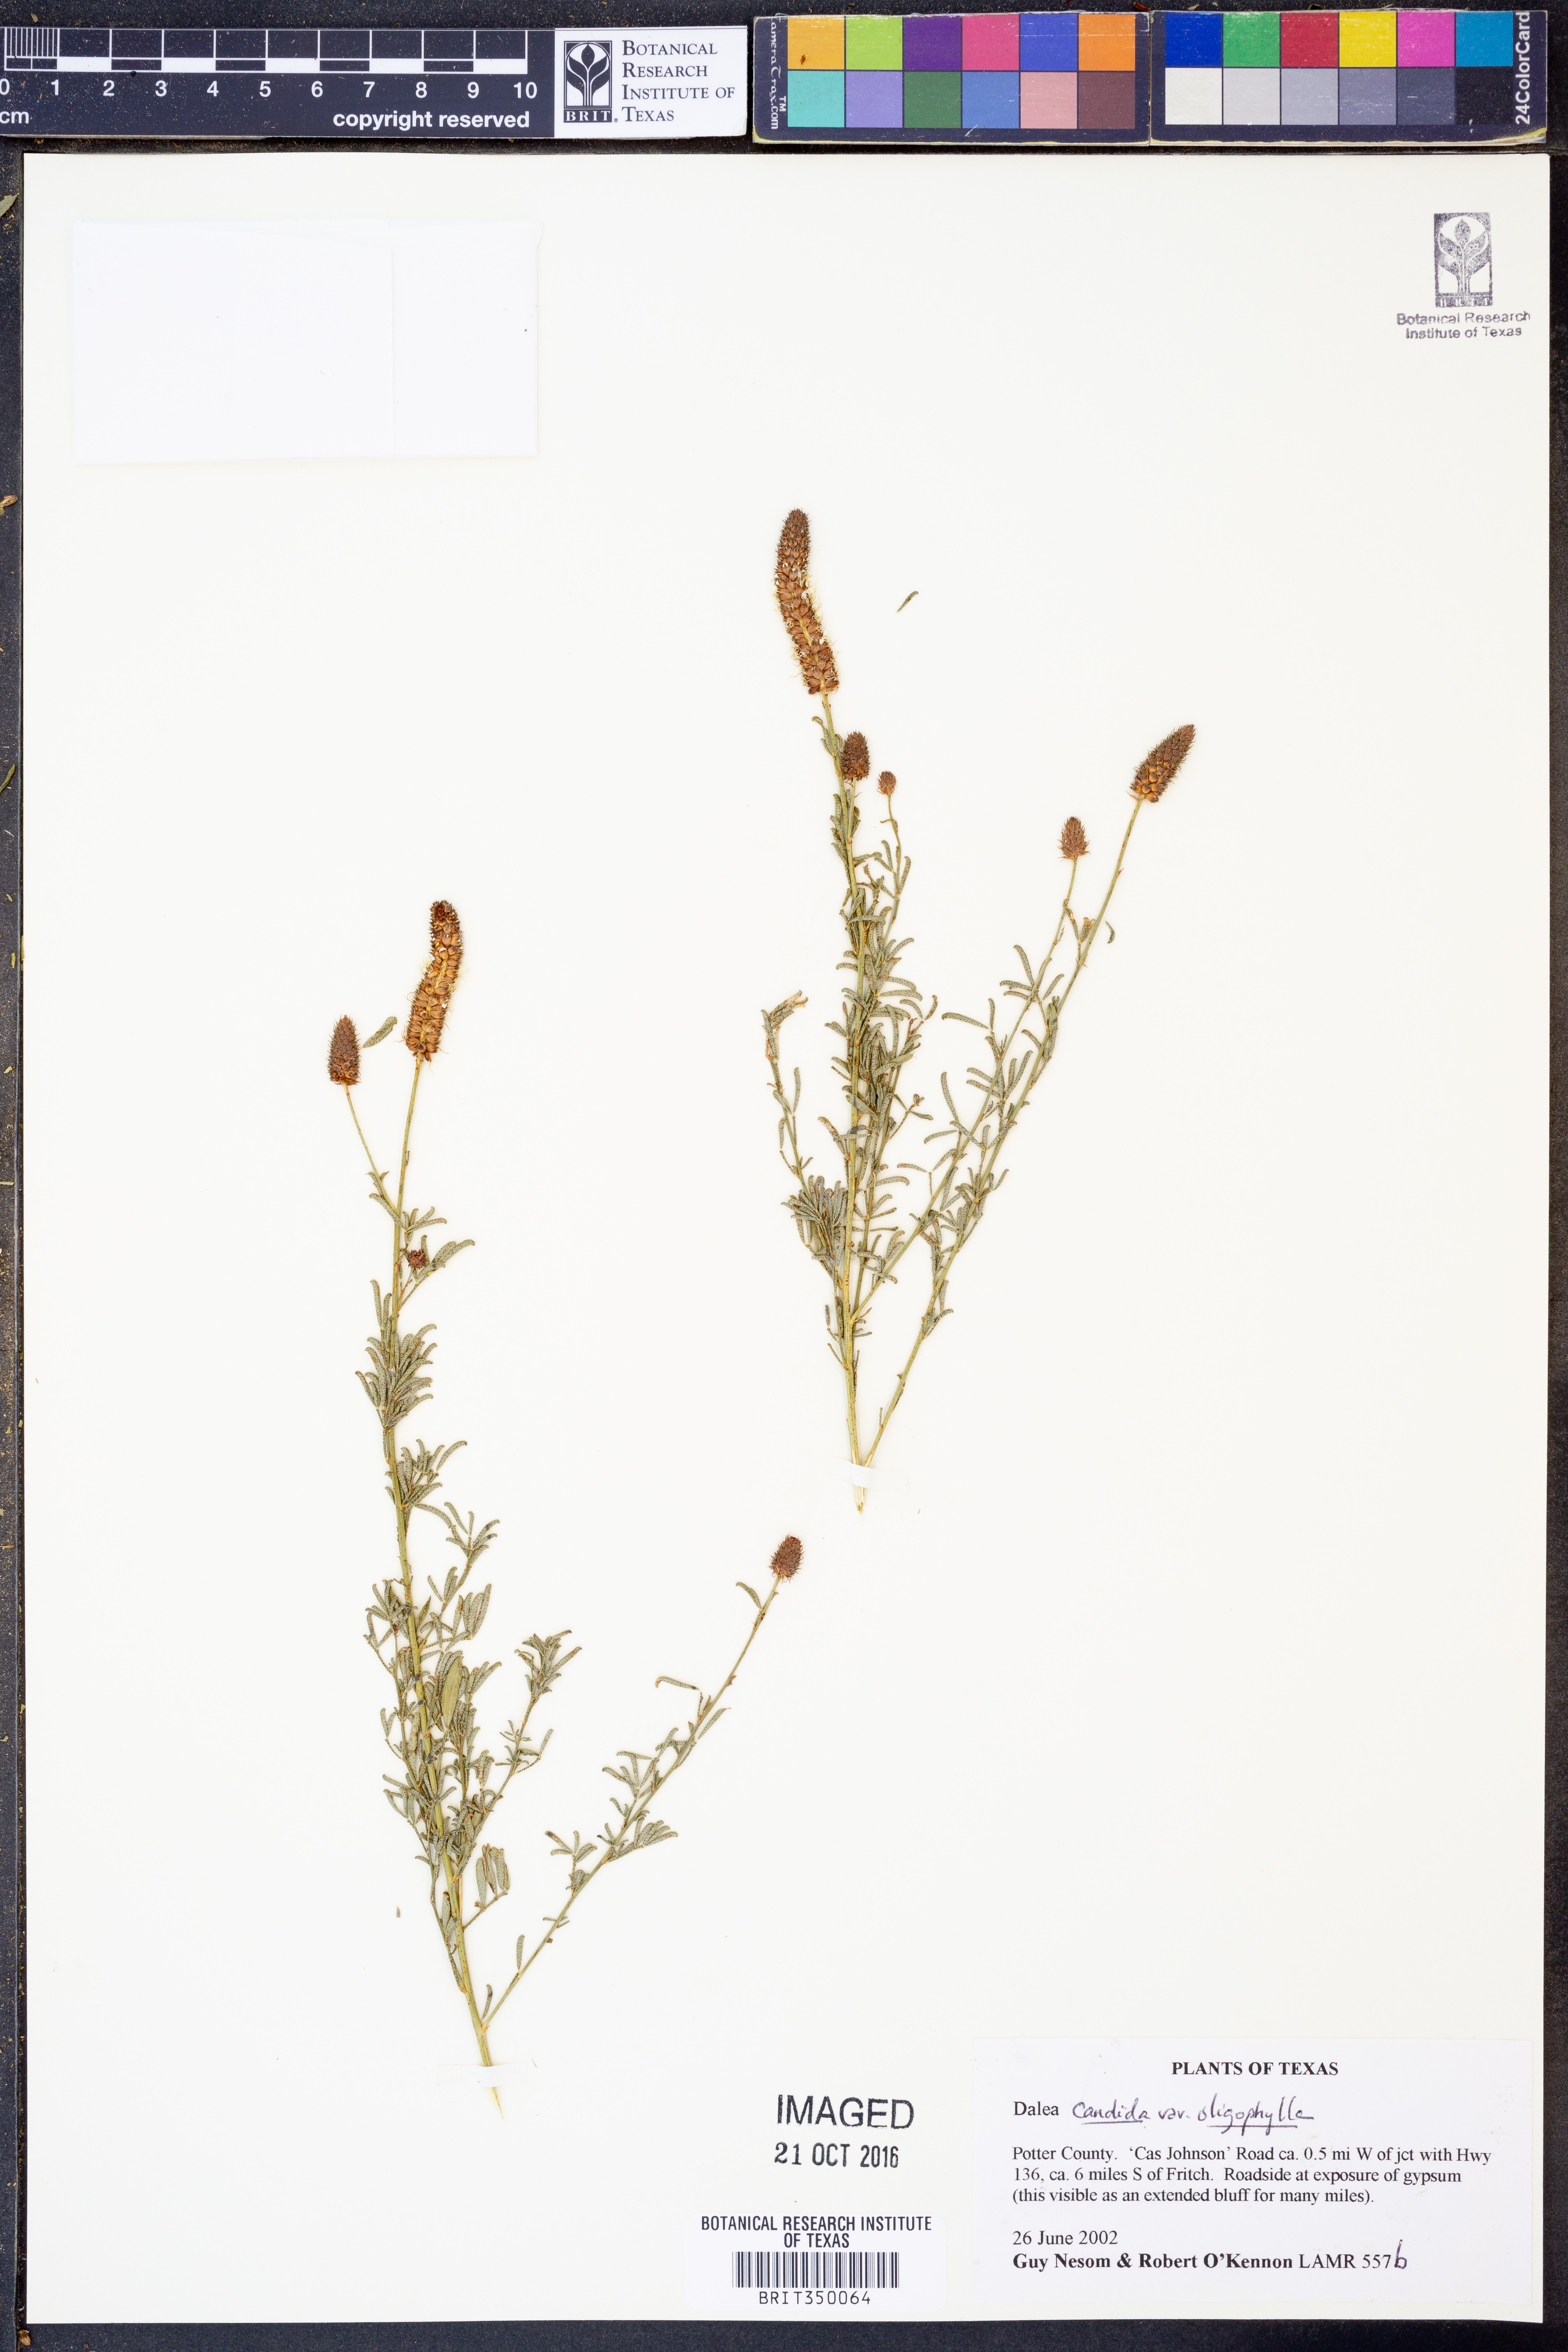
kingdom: Plantae
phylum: Tracheophyta
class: Magnoliopsida
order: Fabales
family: Fabaceae
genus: Dalea
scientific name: Dalea candida
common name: White prairie-clover
